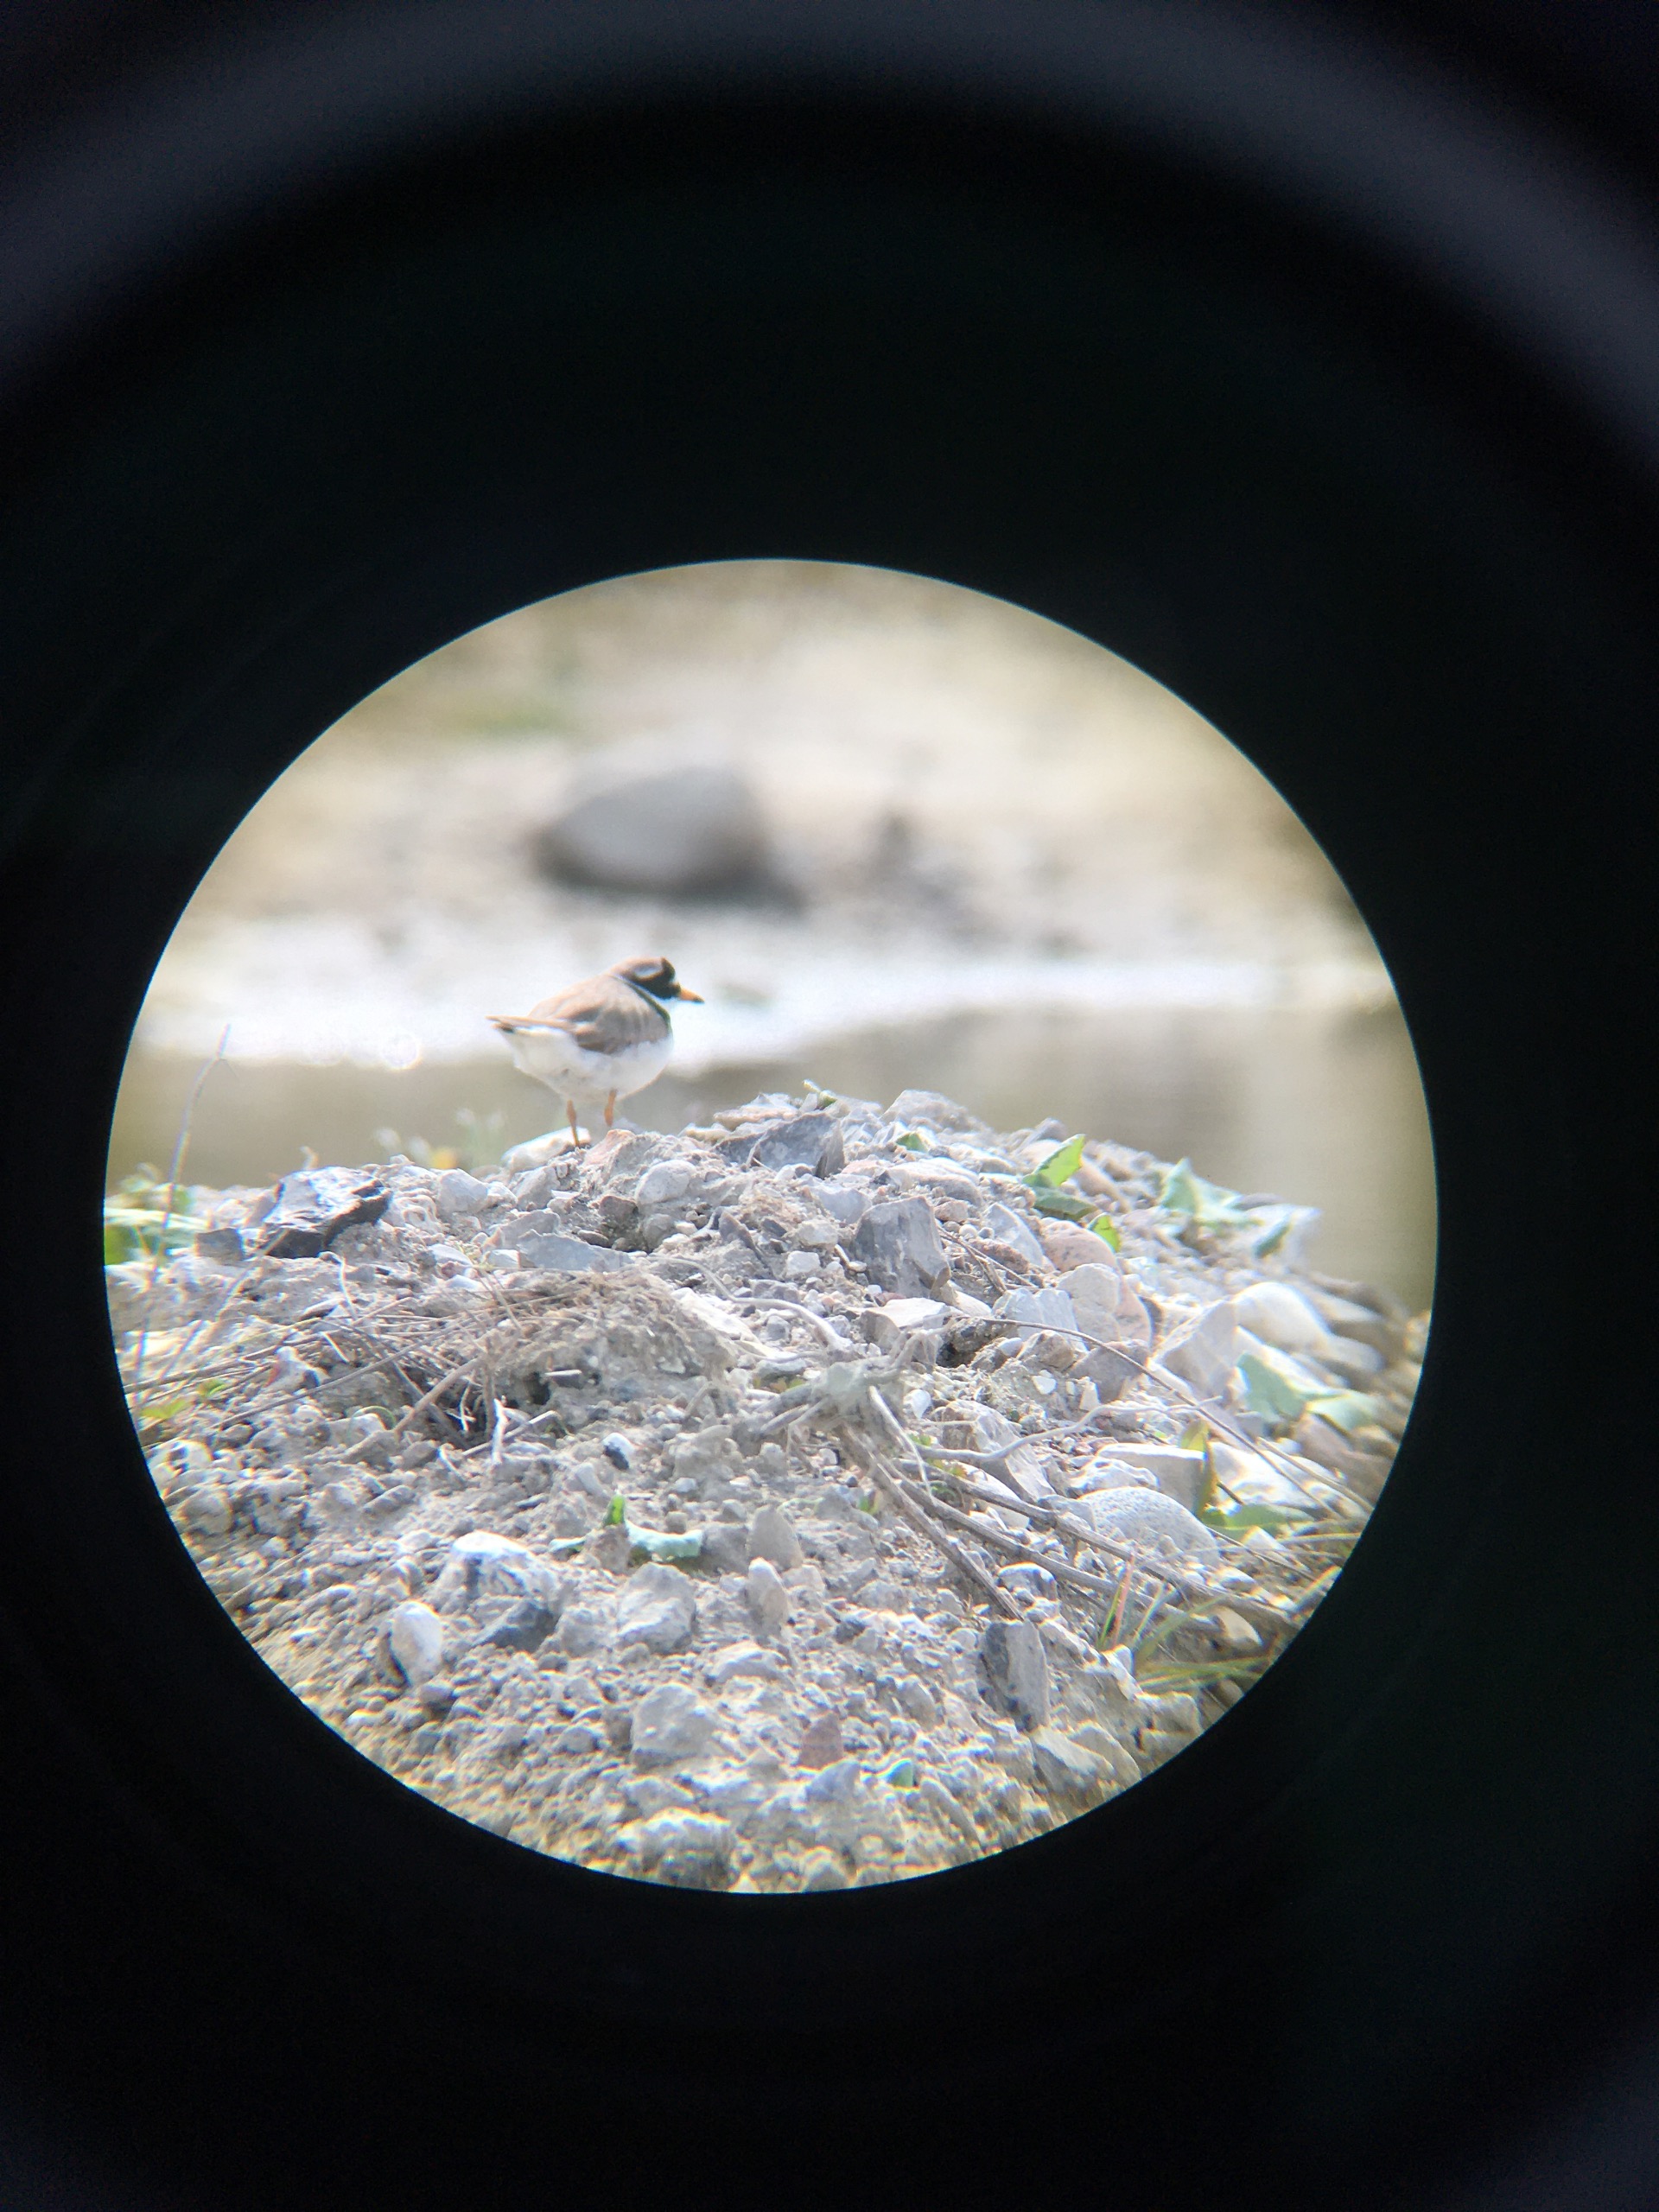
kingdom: Animalia
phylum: Chordata
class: Aves
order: Charadriiformes
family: Charadriidae
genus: Charadrius
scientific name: Charadrius hiaticula
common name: Stor præstekrave
